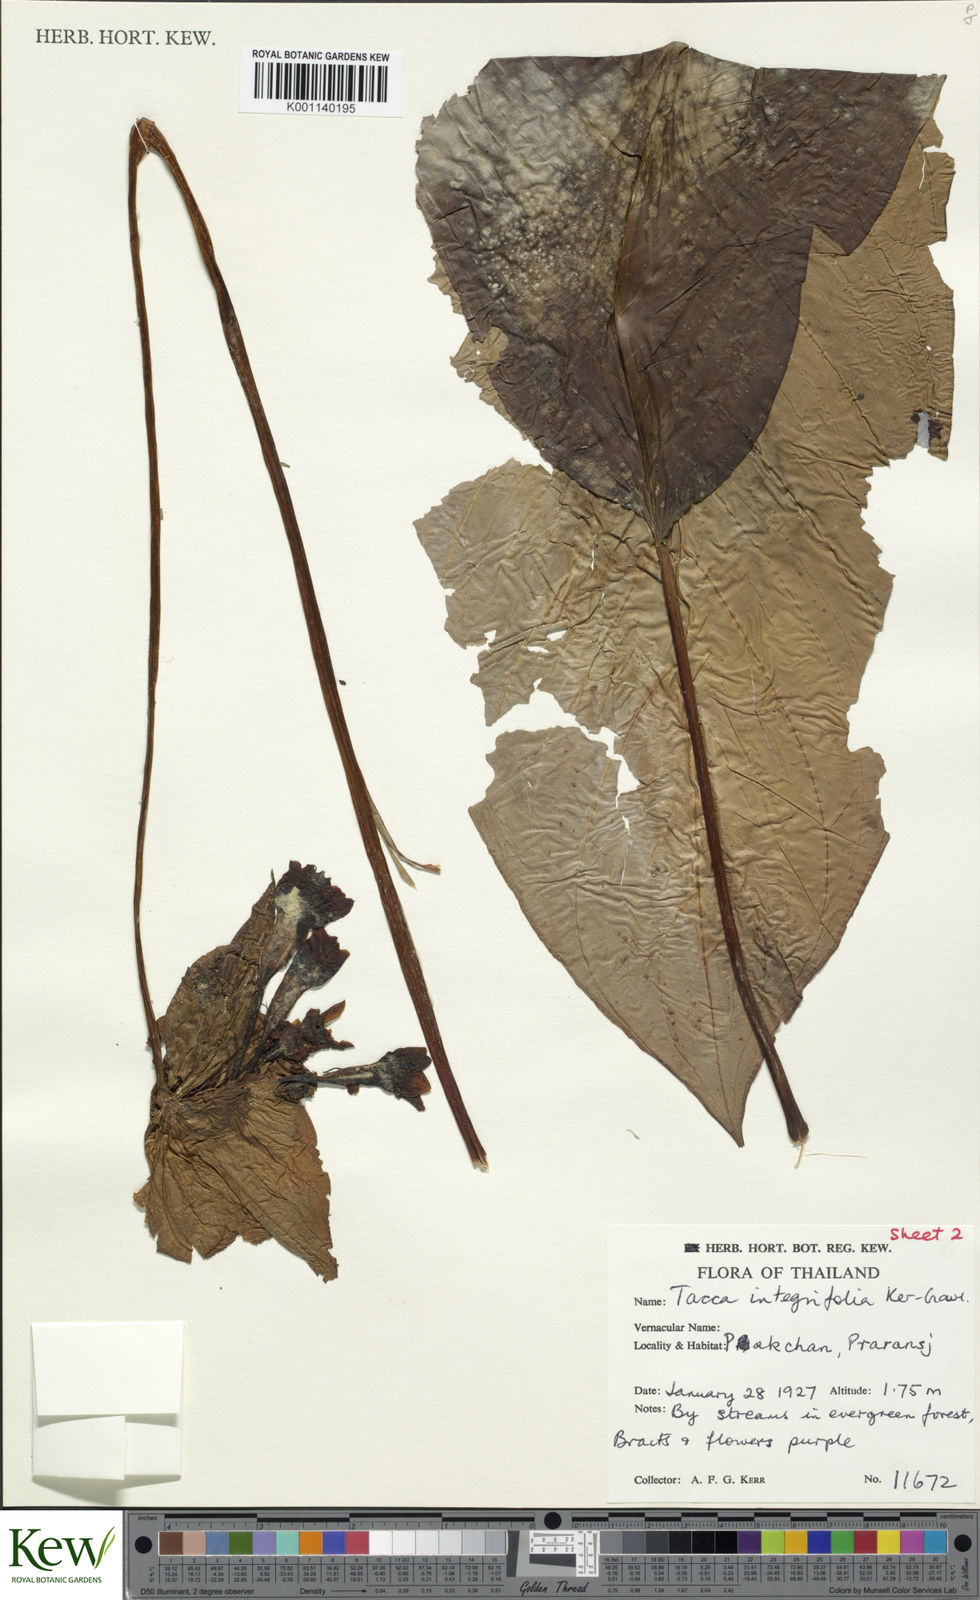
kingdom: Plantae
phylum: Tracheophyta
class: Liliopsida
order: Dioscoreales
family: Dioscoreaceae
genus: Tacca
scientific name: Tacca integrifolia
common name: Batplant
